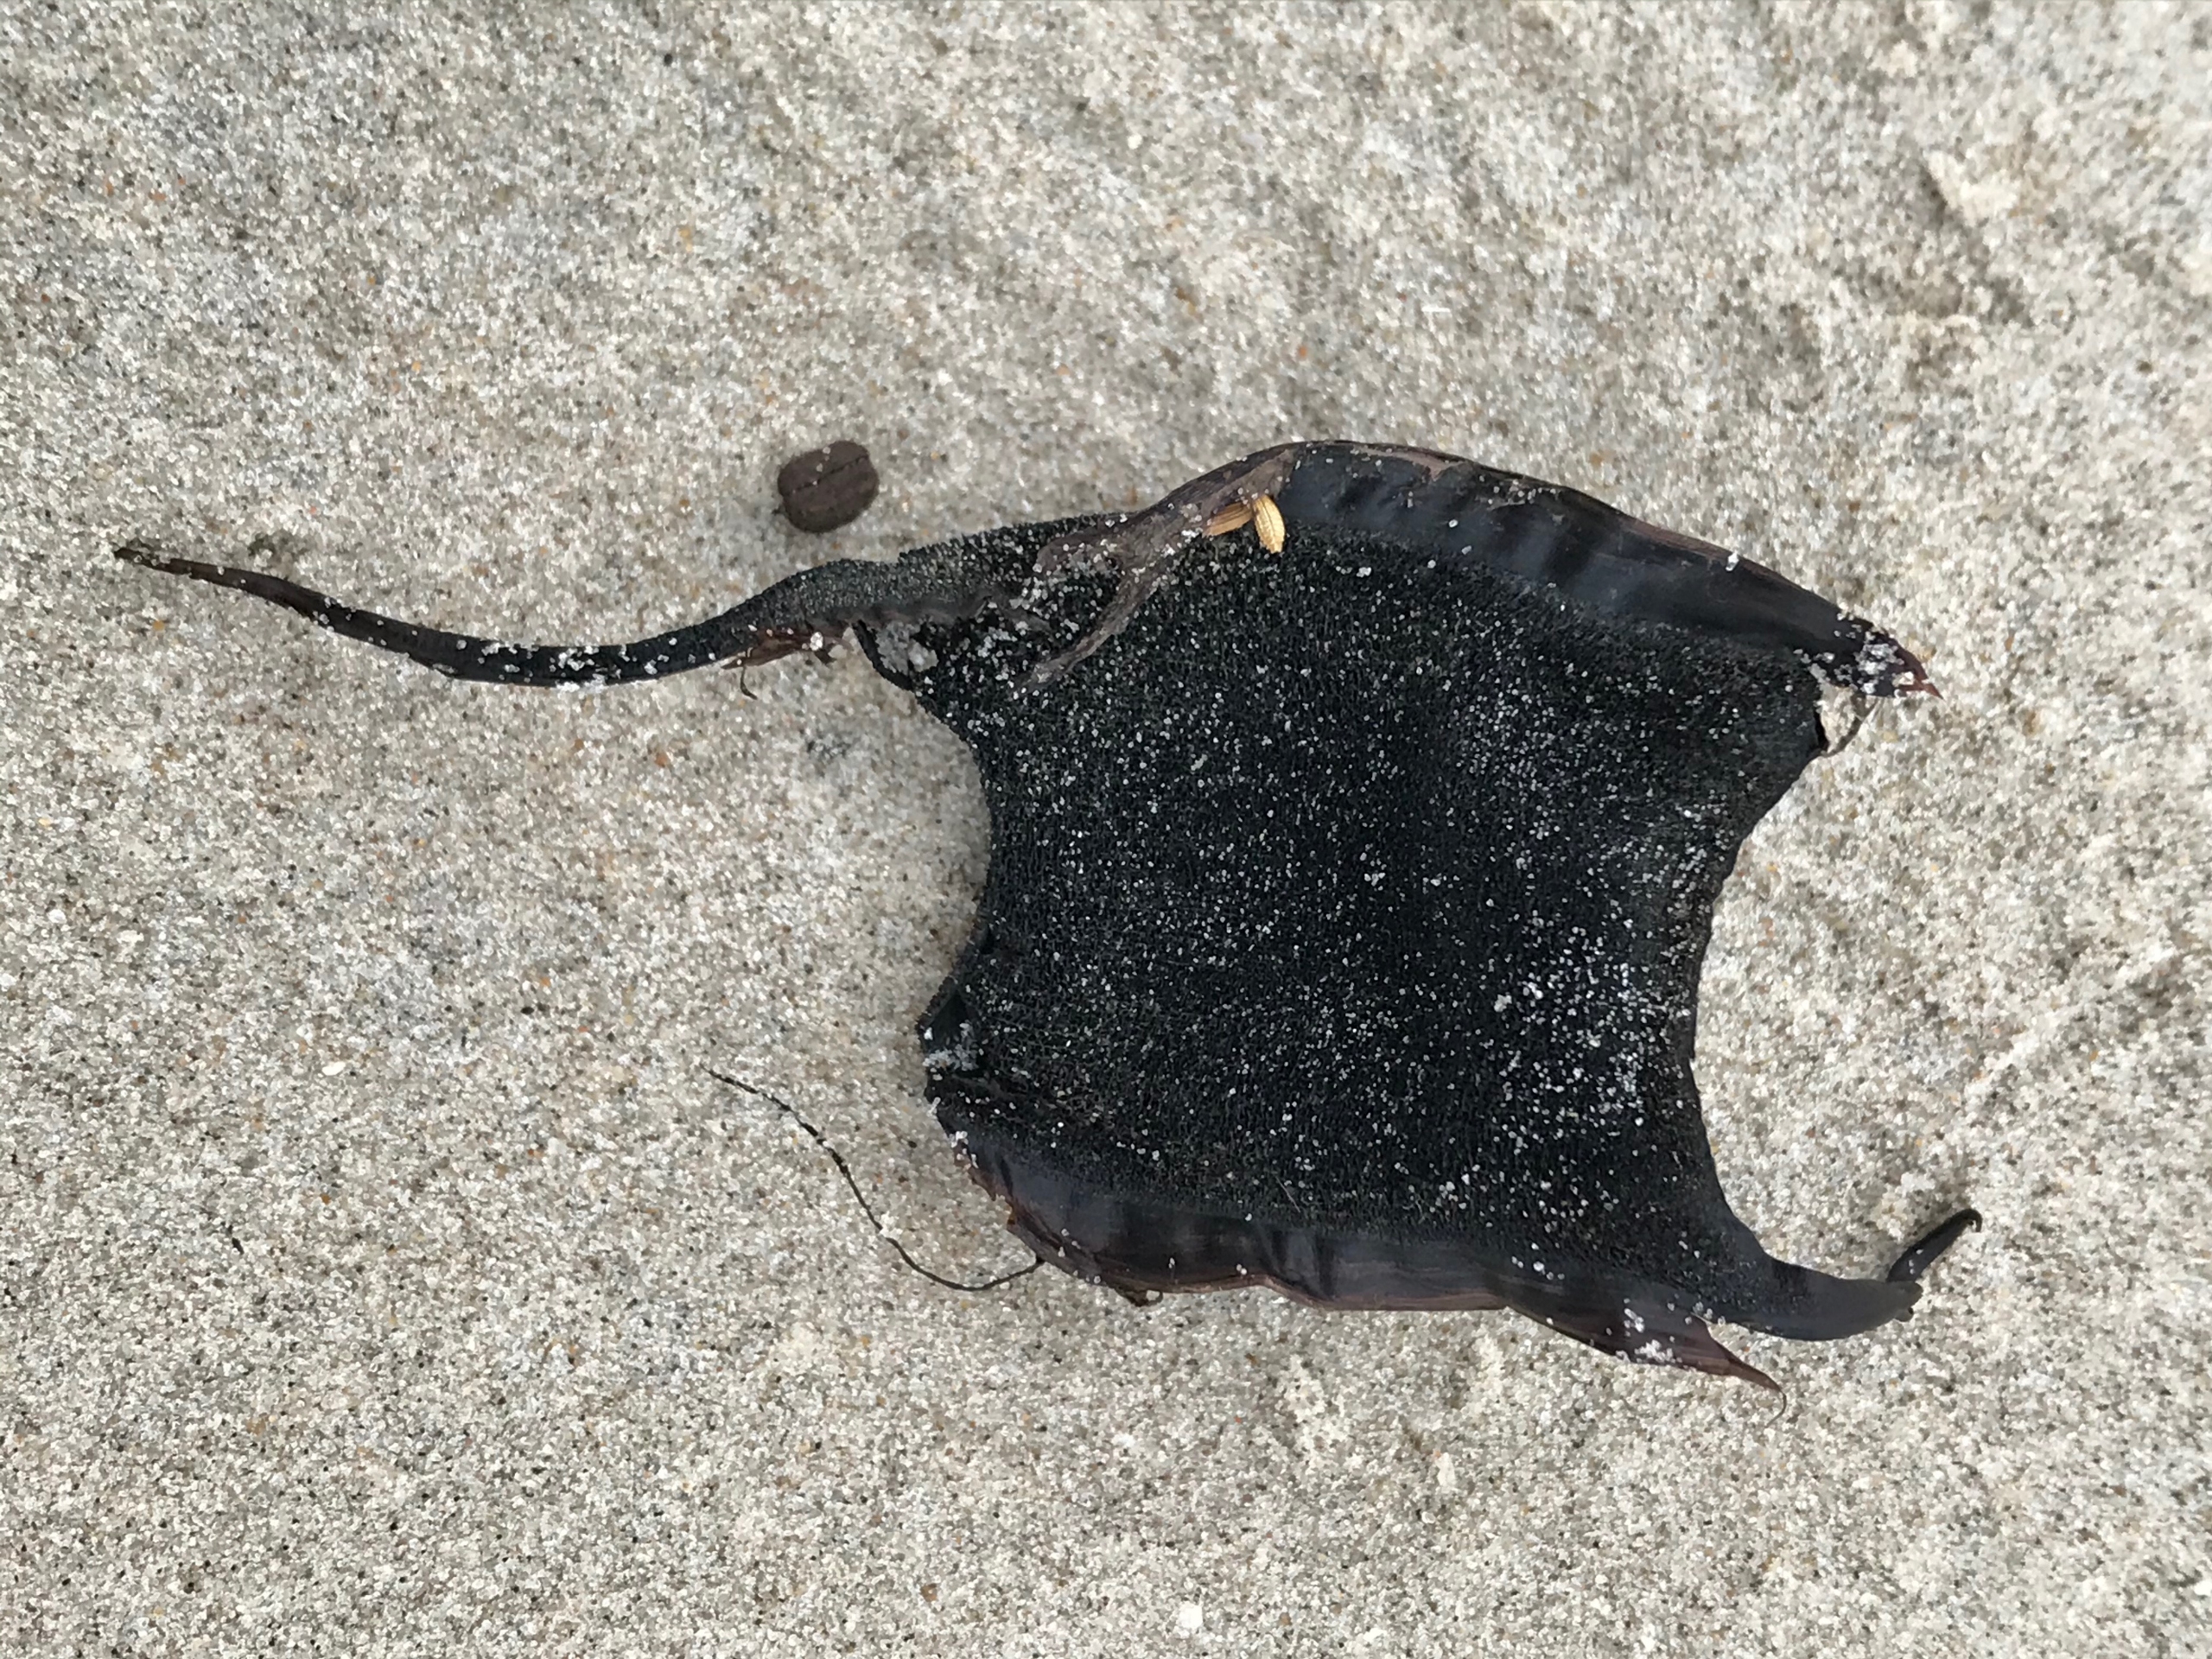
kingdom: Animalia
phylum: Chordata
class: Elasmobranchii
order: Rajiformes
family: Rajidae
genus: Amblyraja
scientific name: Amblyraja radiata
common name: Tærbe
